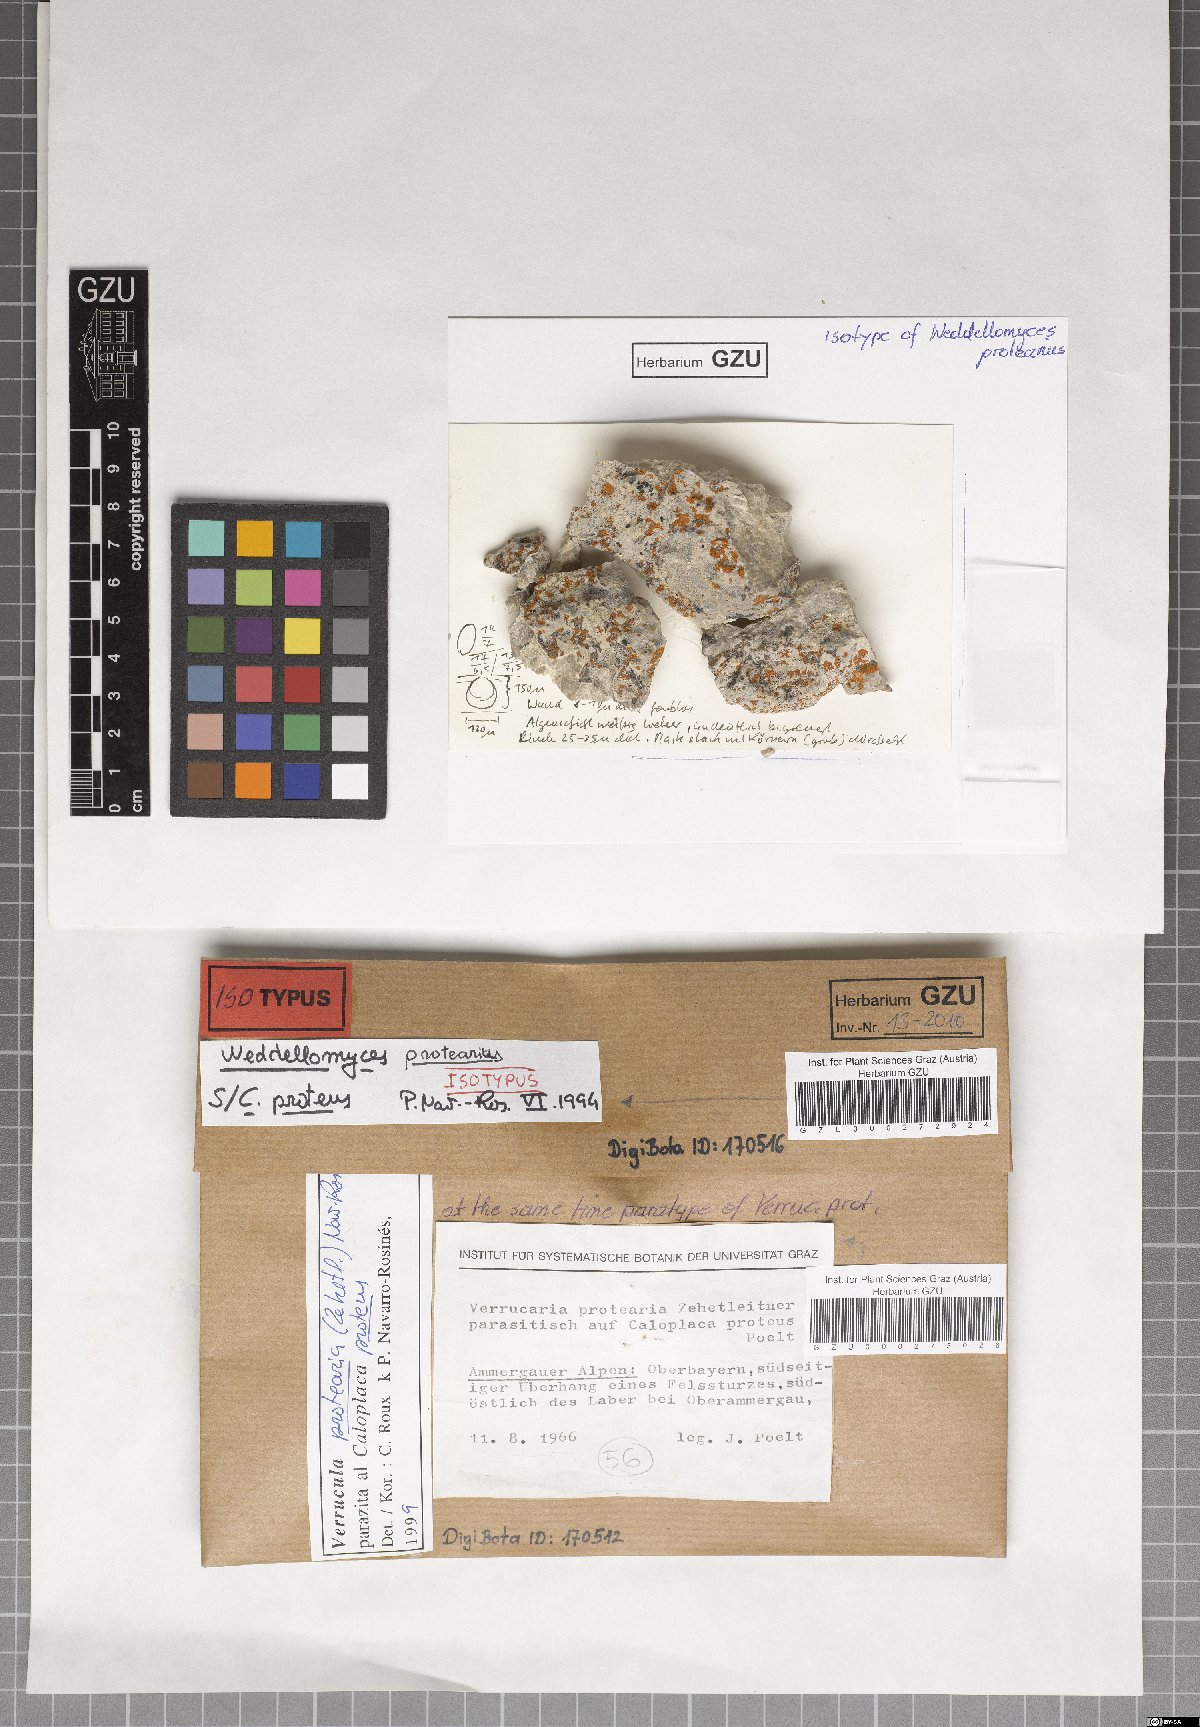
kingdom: Fungi
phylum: Ascomycota
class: Dothideomycetes
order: Pleosporales
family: Dacampiaceae
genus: Weddellomyces
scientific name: Weddellomyces protearius
